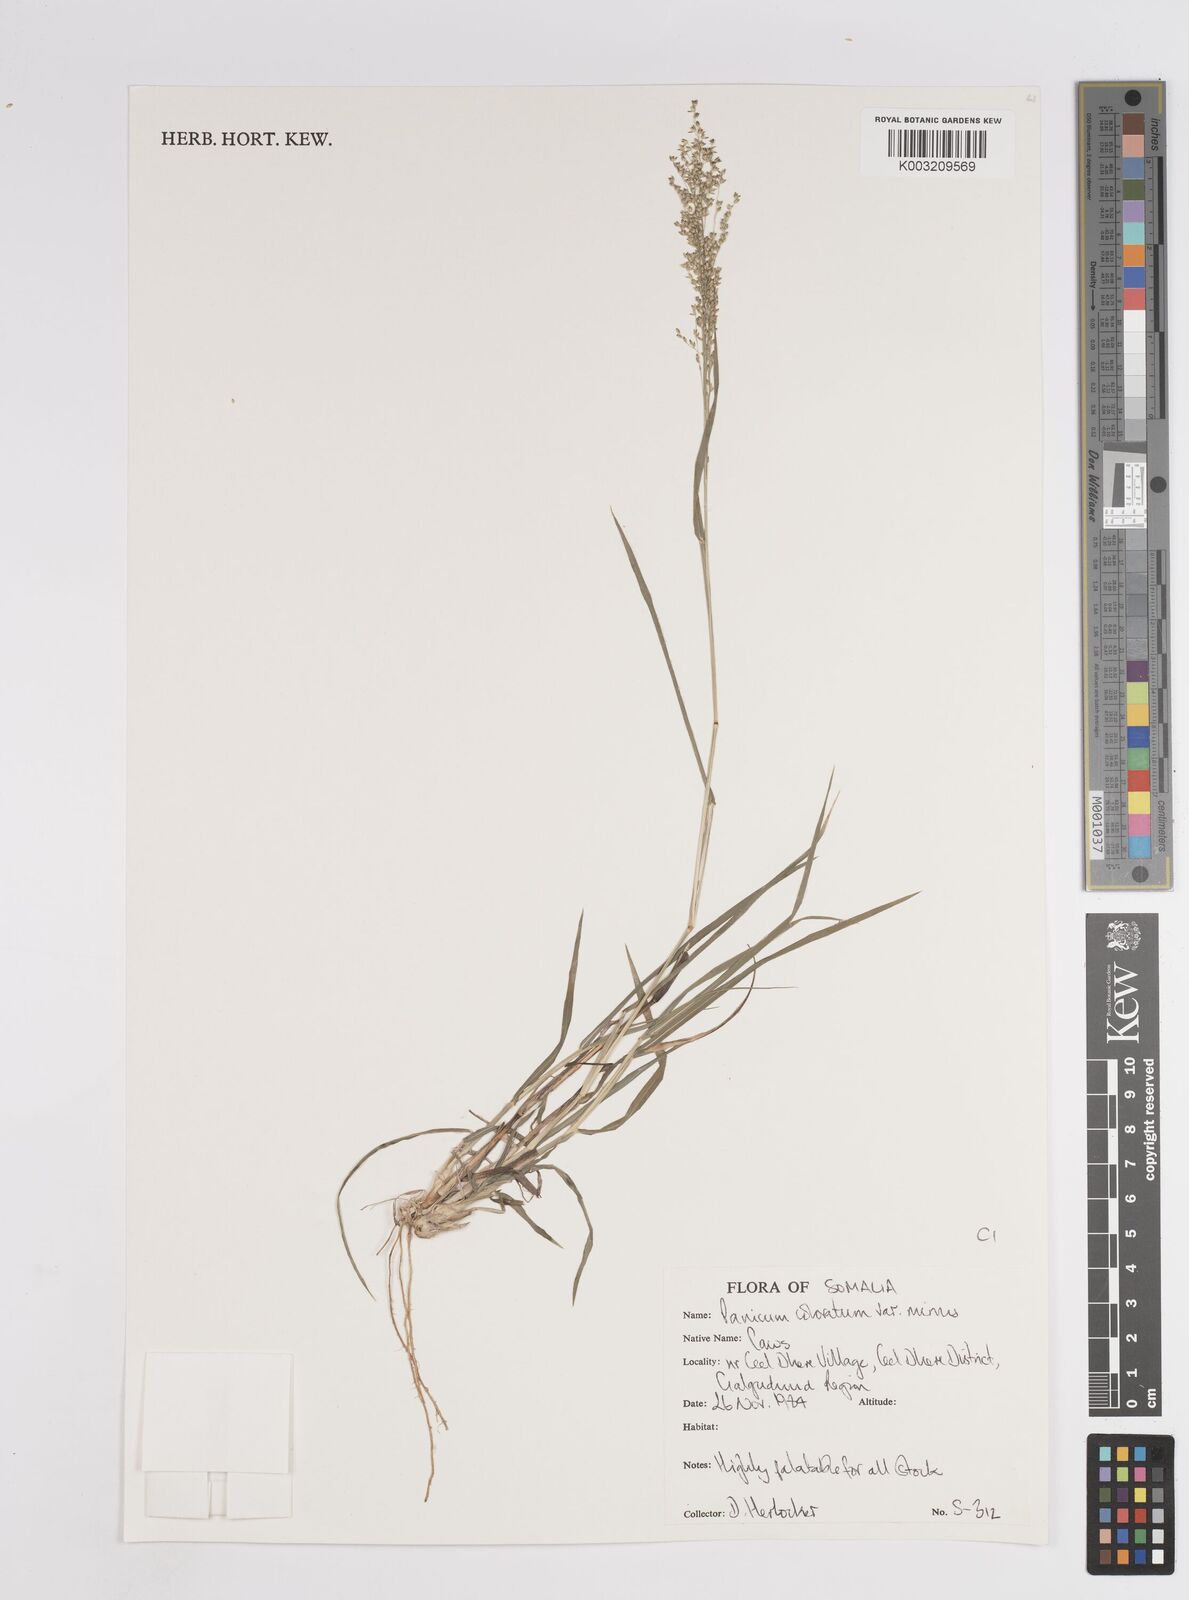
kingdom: Plantae
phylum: Tracheophyta
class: Liliopsida
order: Poales
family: Poaceae
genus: Panicum
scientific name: Panicum coloratum
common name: Kleingrass
